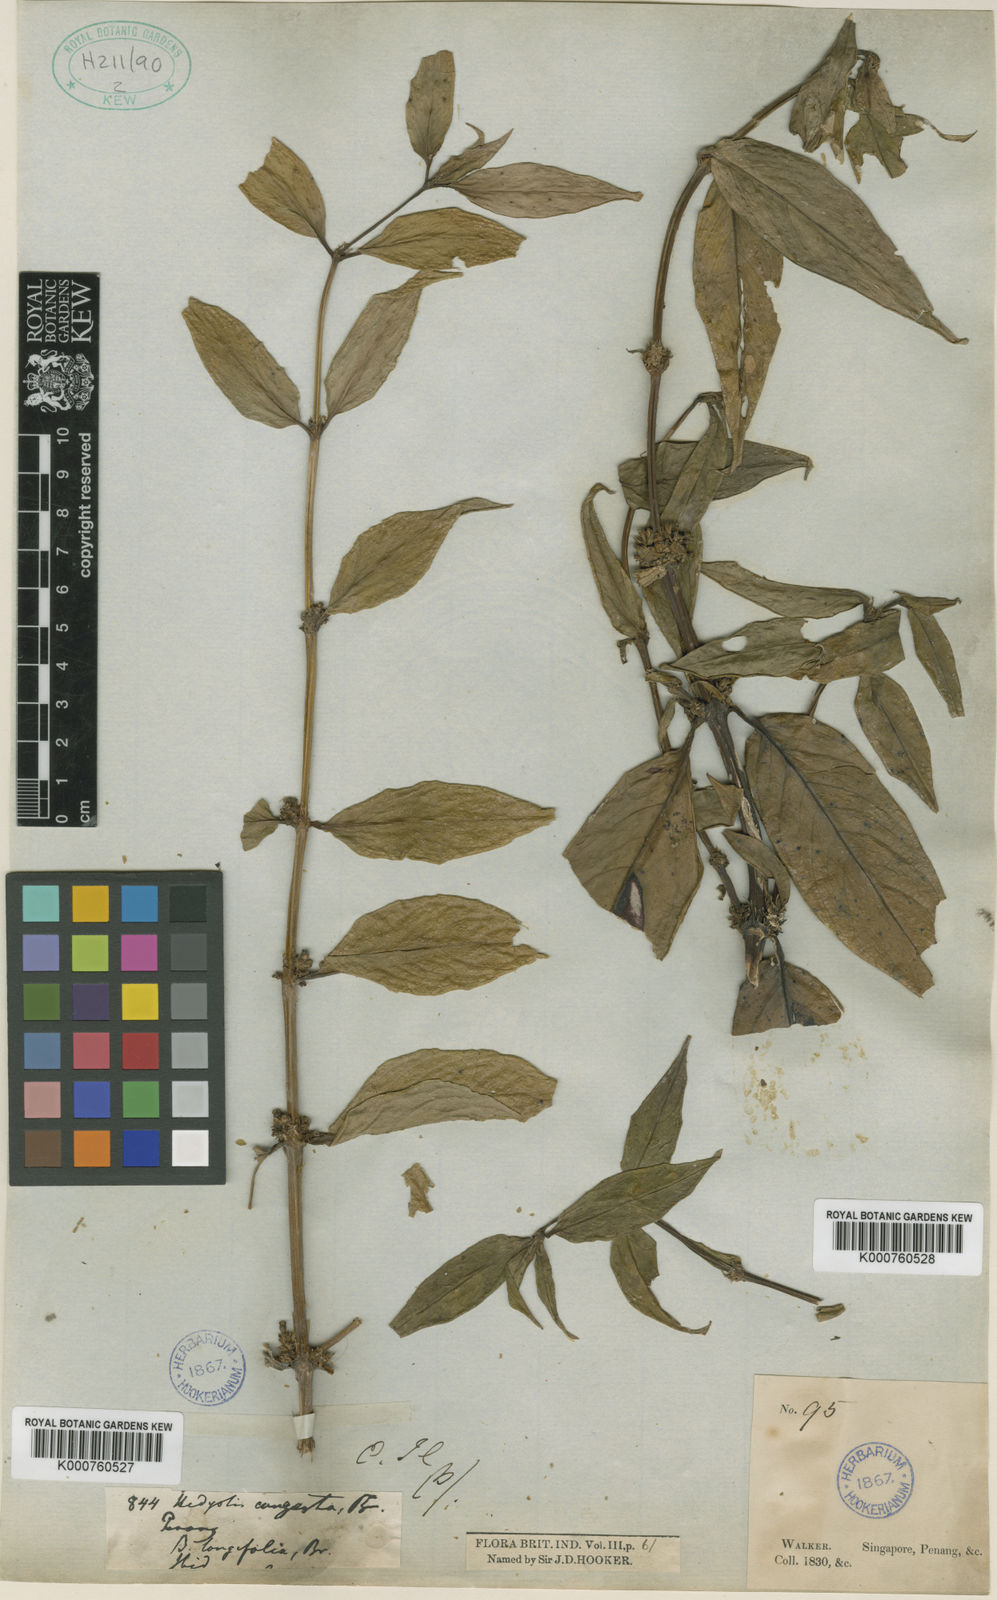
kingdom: Plantae
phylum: Tracheophyta
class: Magnoliopsida
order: Gentianales
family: Rubiaceae
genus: Oldenlandia
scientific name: Oldenlandia
